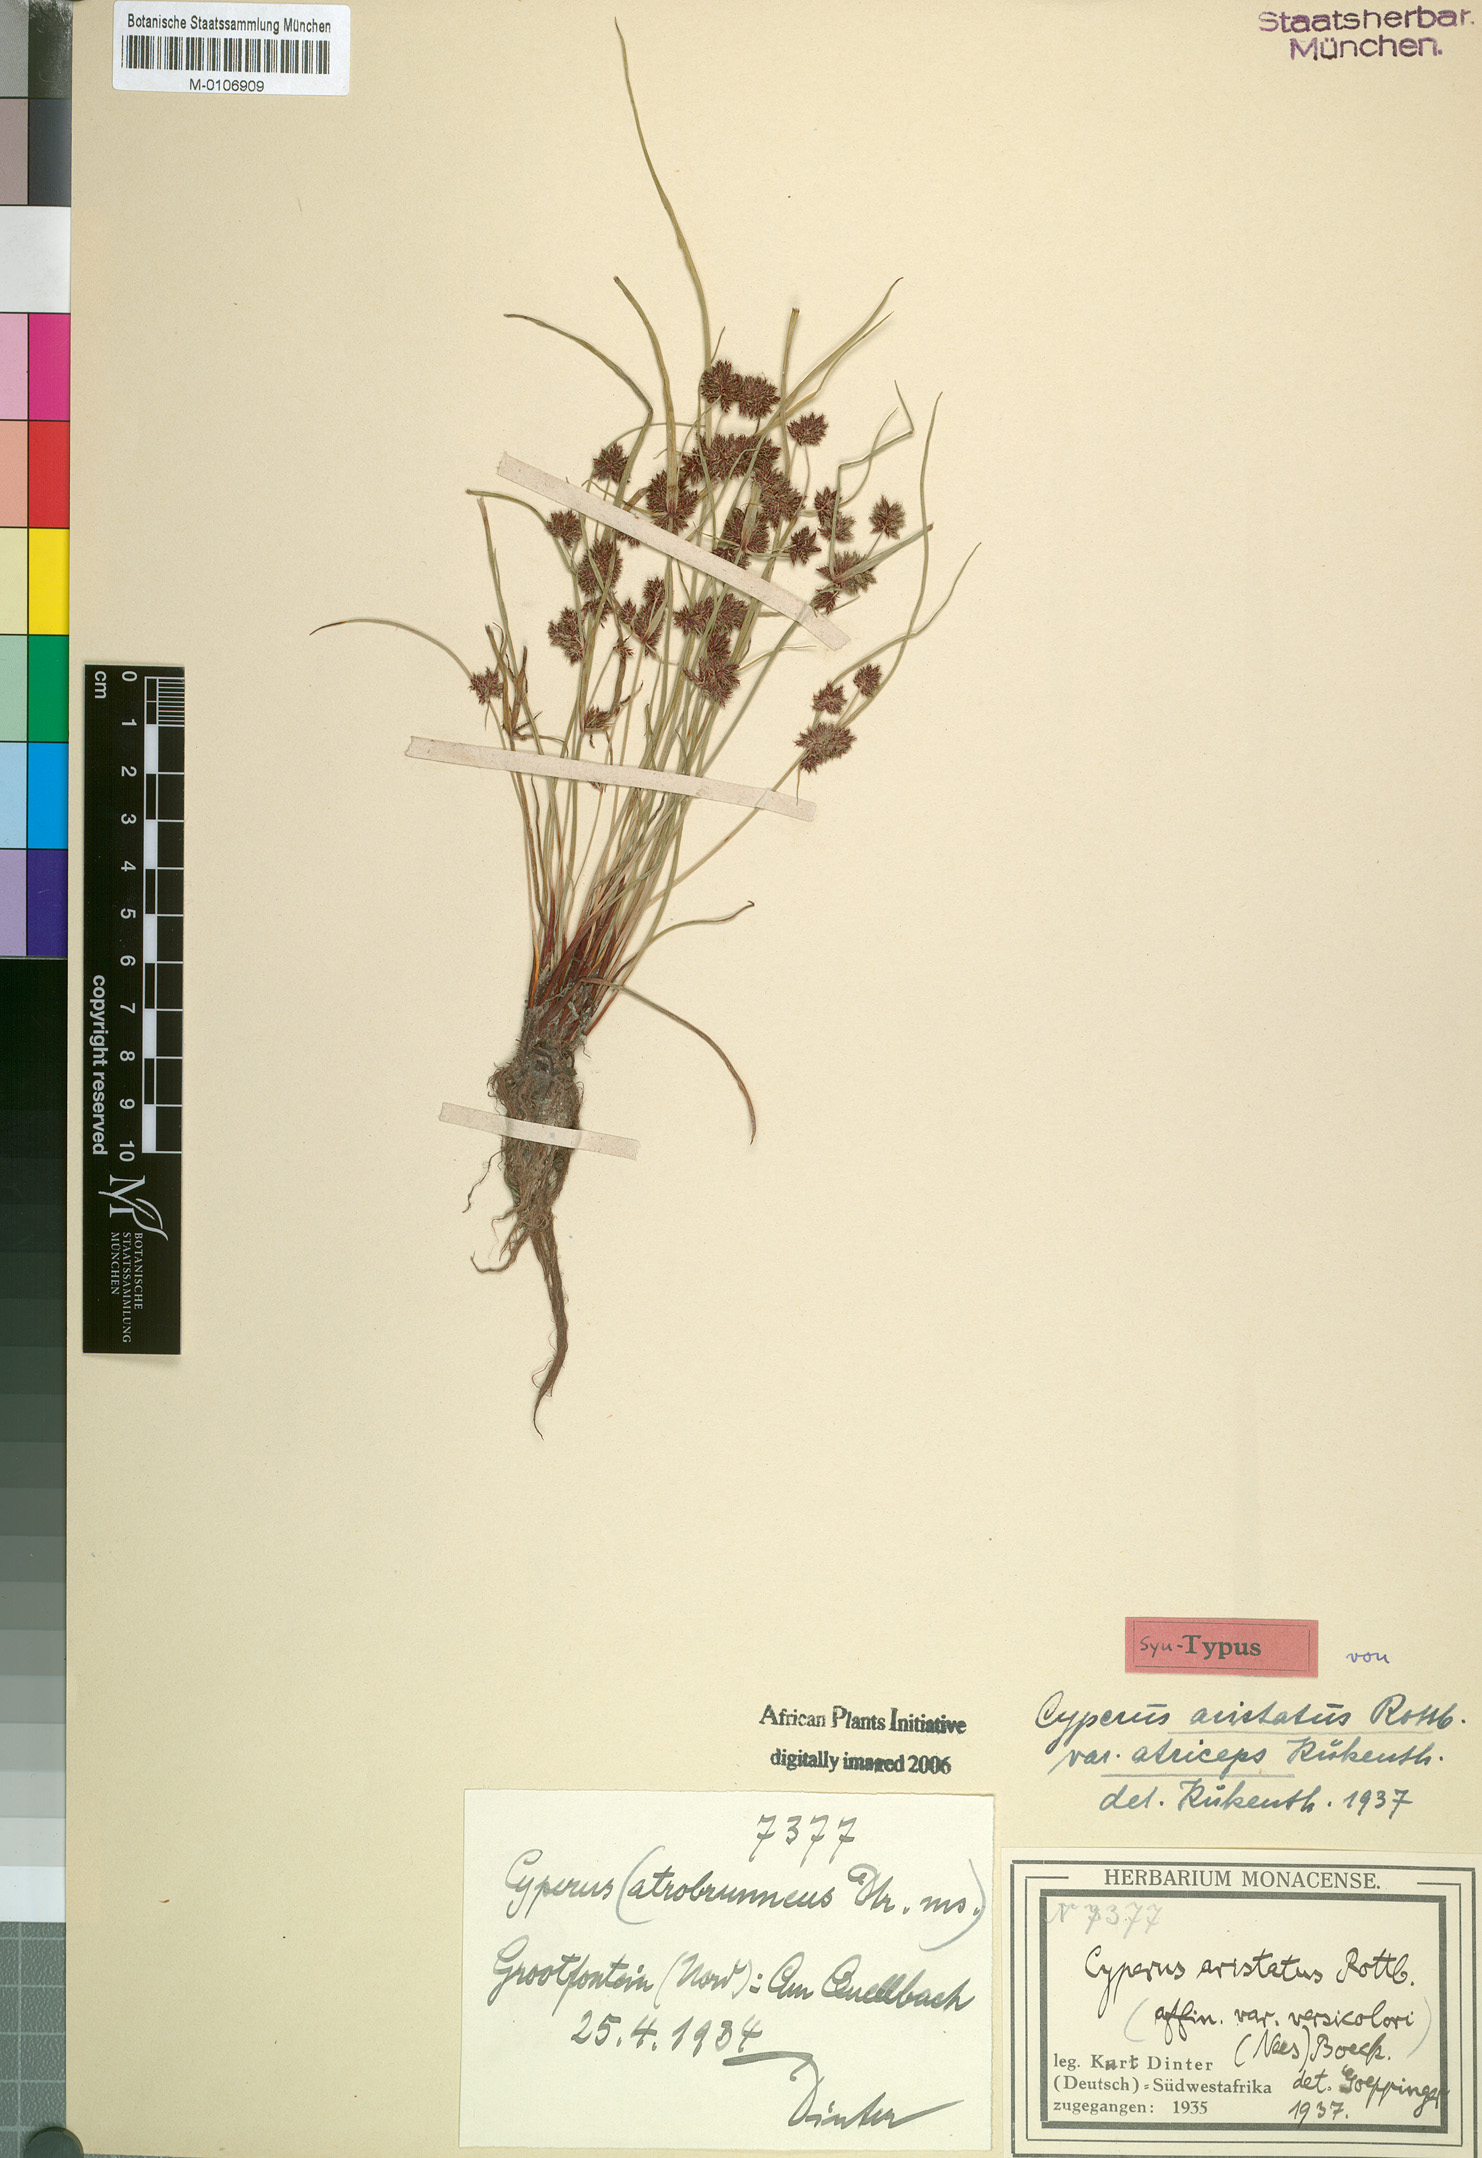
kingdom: Plantae
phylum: Tracheophyta
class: Liliopsida
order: Poales
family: Cyperaceae
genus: Cyperus
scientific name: Cyperus atriceps
